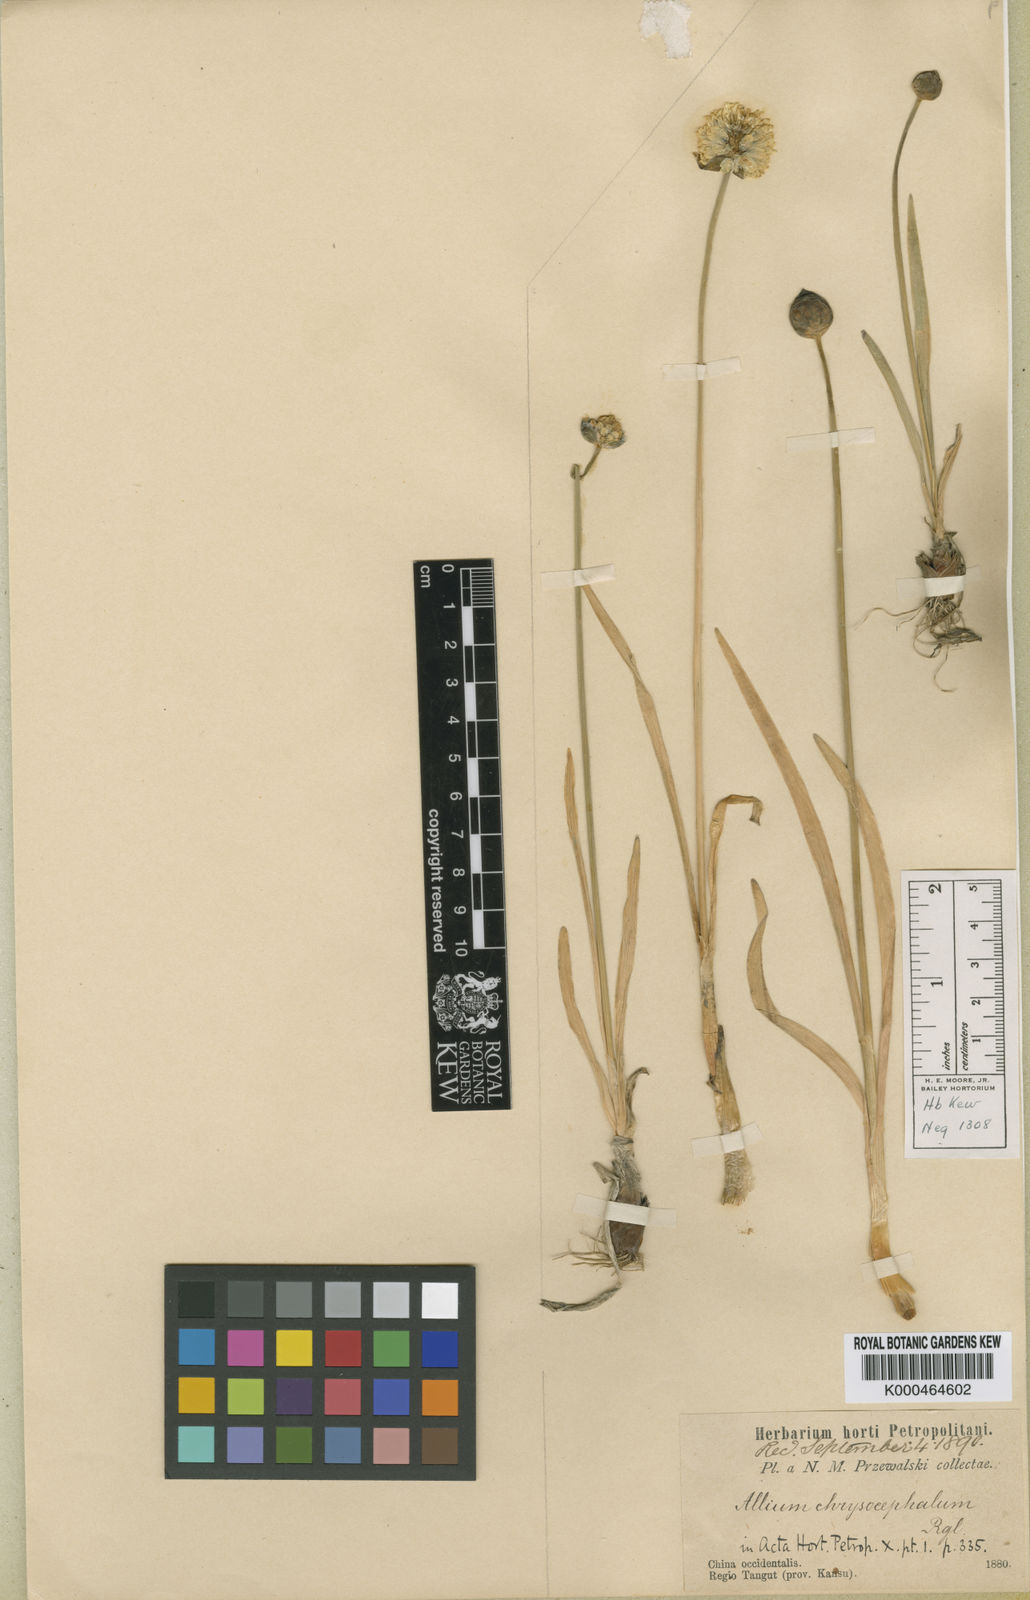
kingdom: Plantae
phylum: Tracheophyta
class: Liliopsida
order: Asparagales
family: Amaryllidaceae
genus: Allium
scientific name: Allium chrysocephalum
